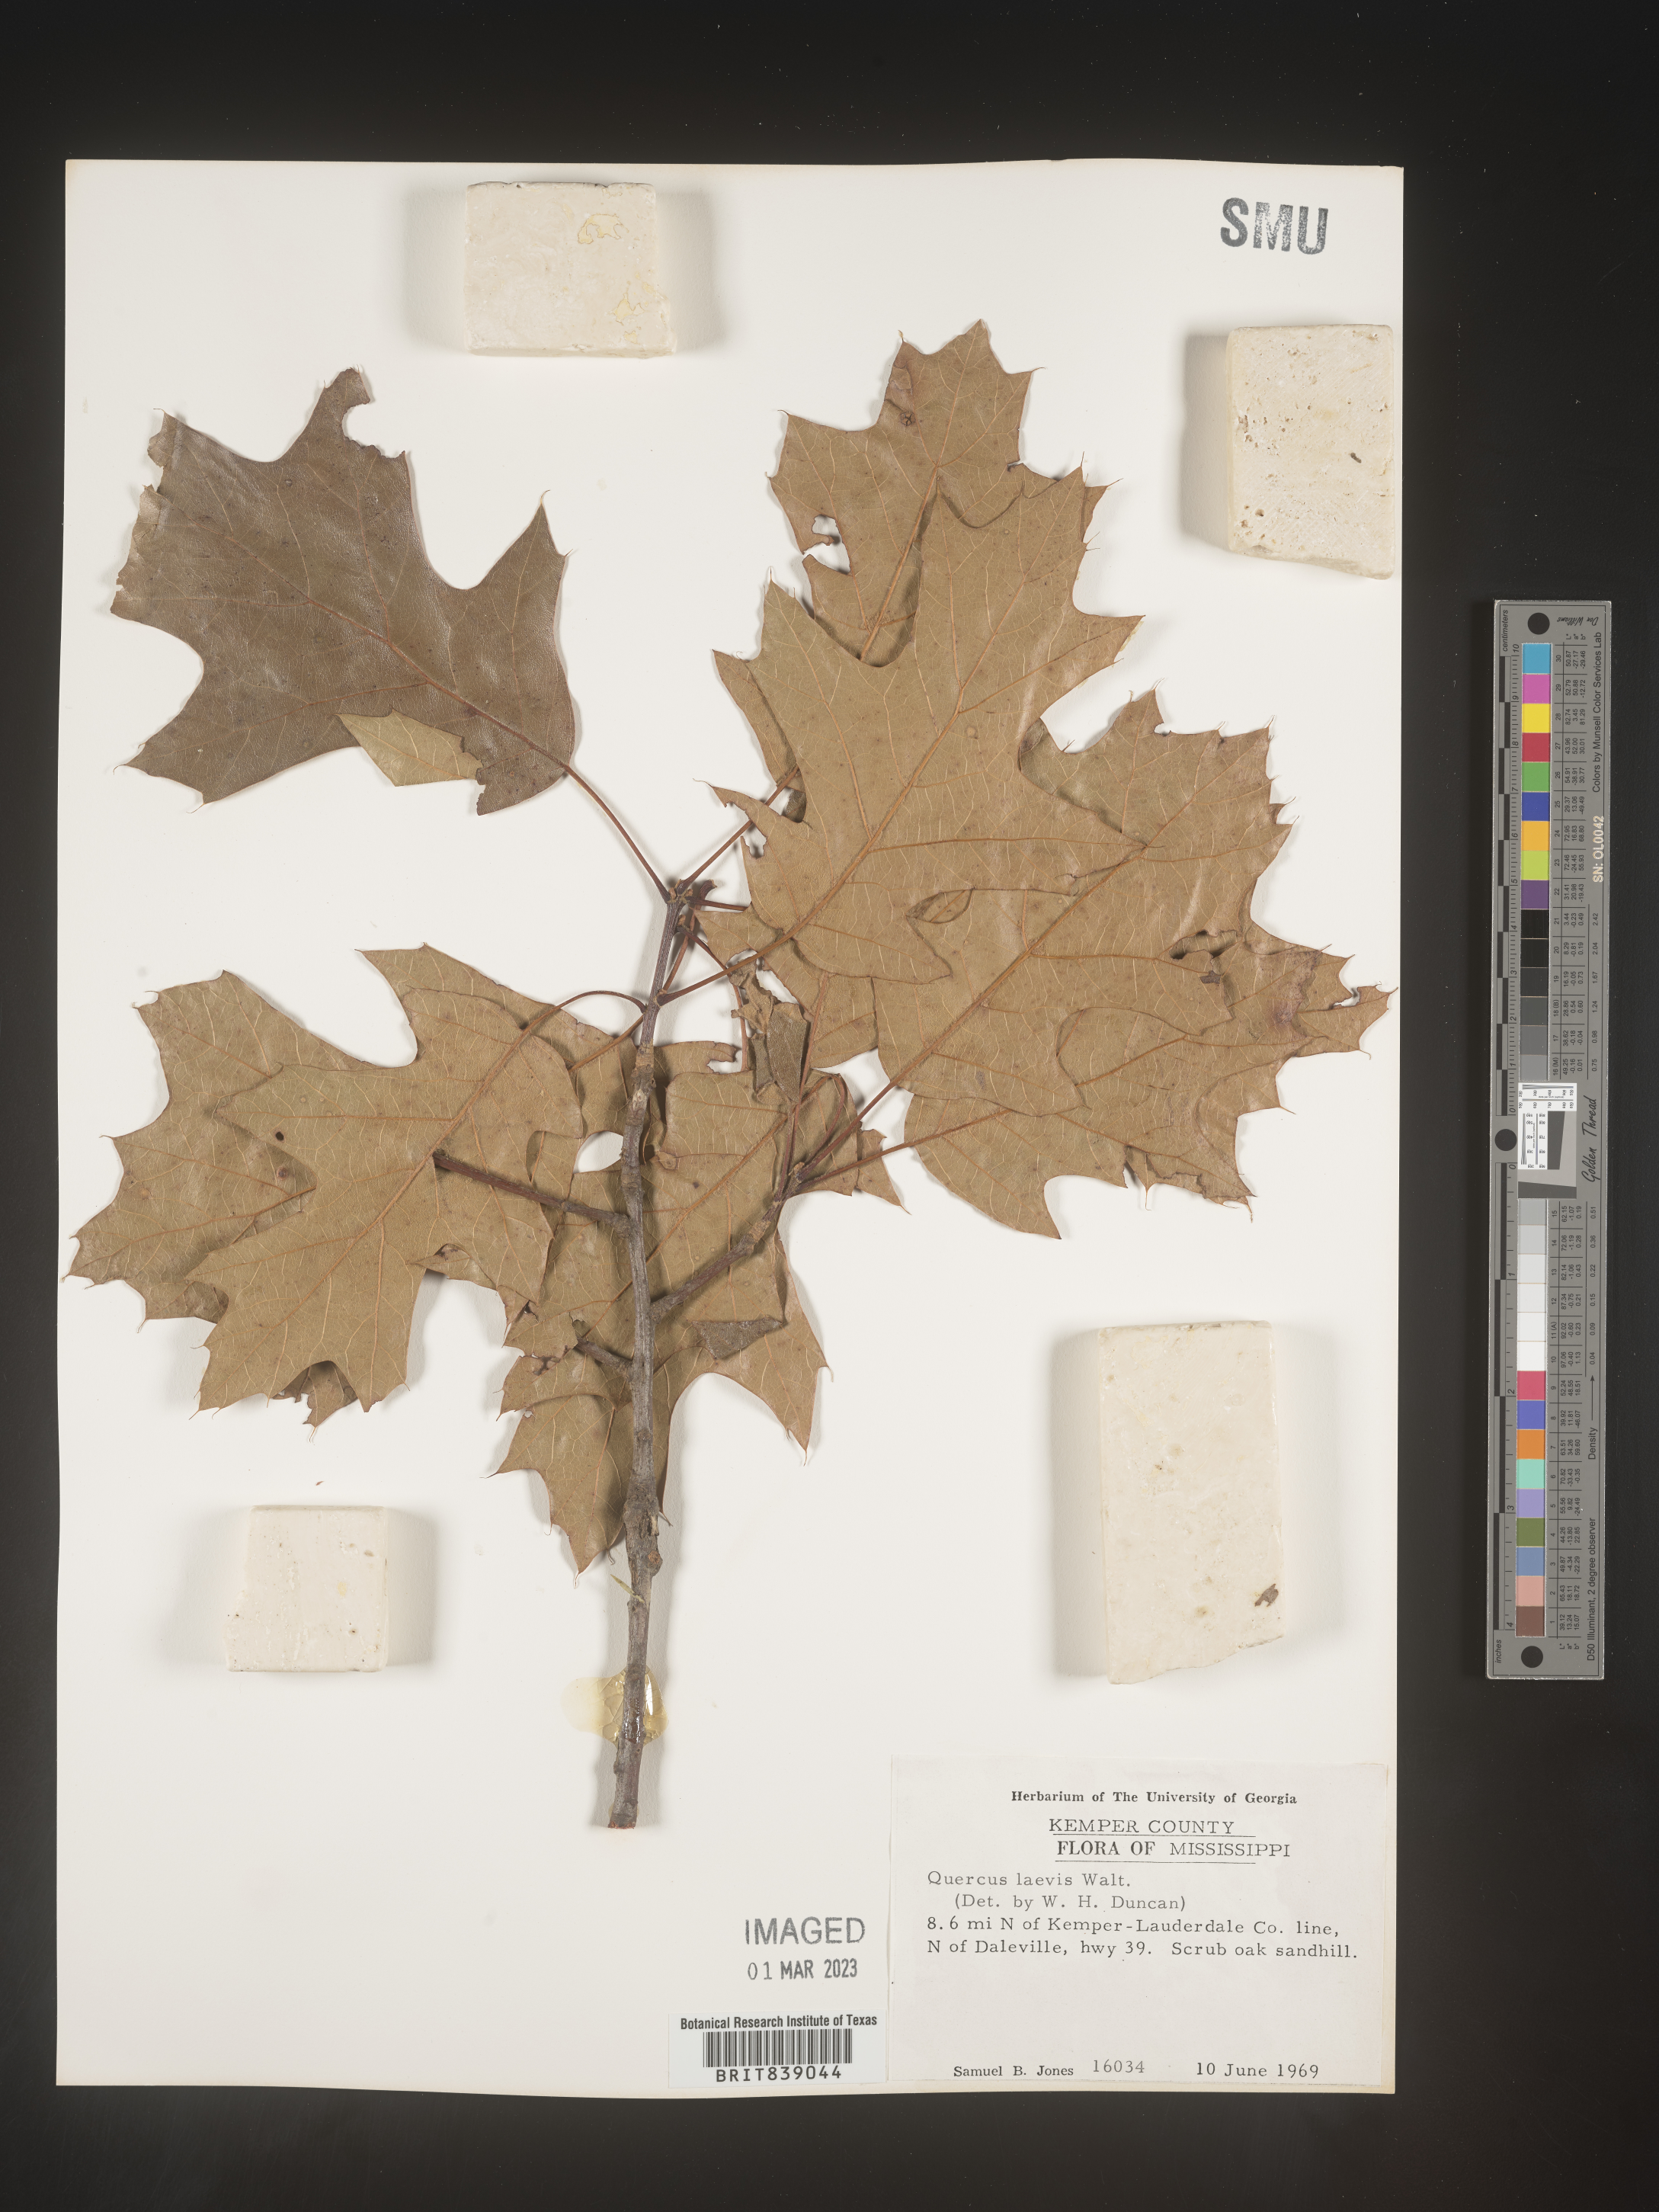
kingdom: Plantae
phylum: Tracheophyta
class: Magnoliopsida
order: Fagales
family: Fagaceae
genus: Quercus
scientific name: Quercus laevis
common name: Turkey oak
